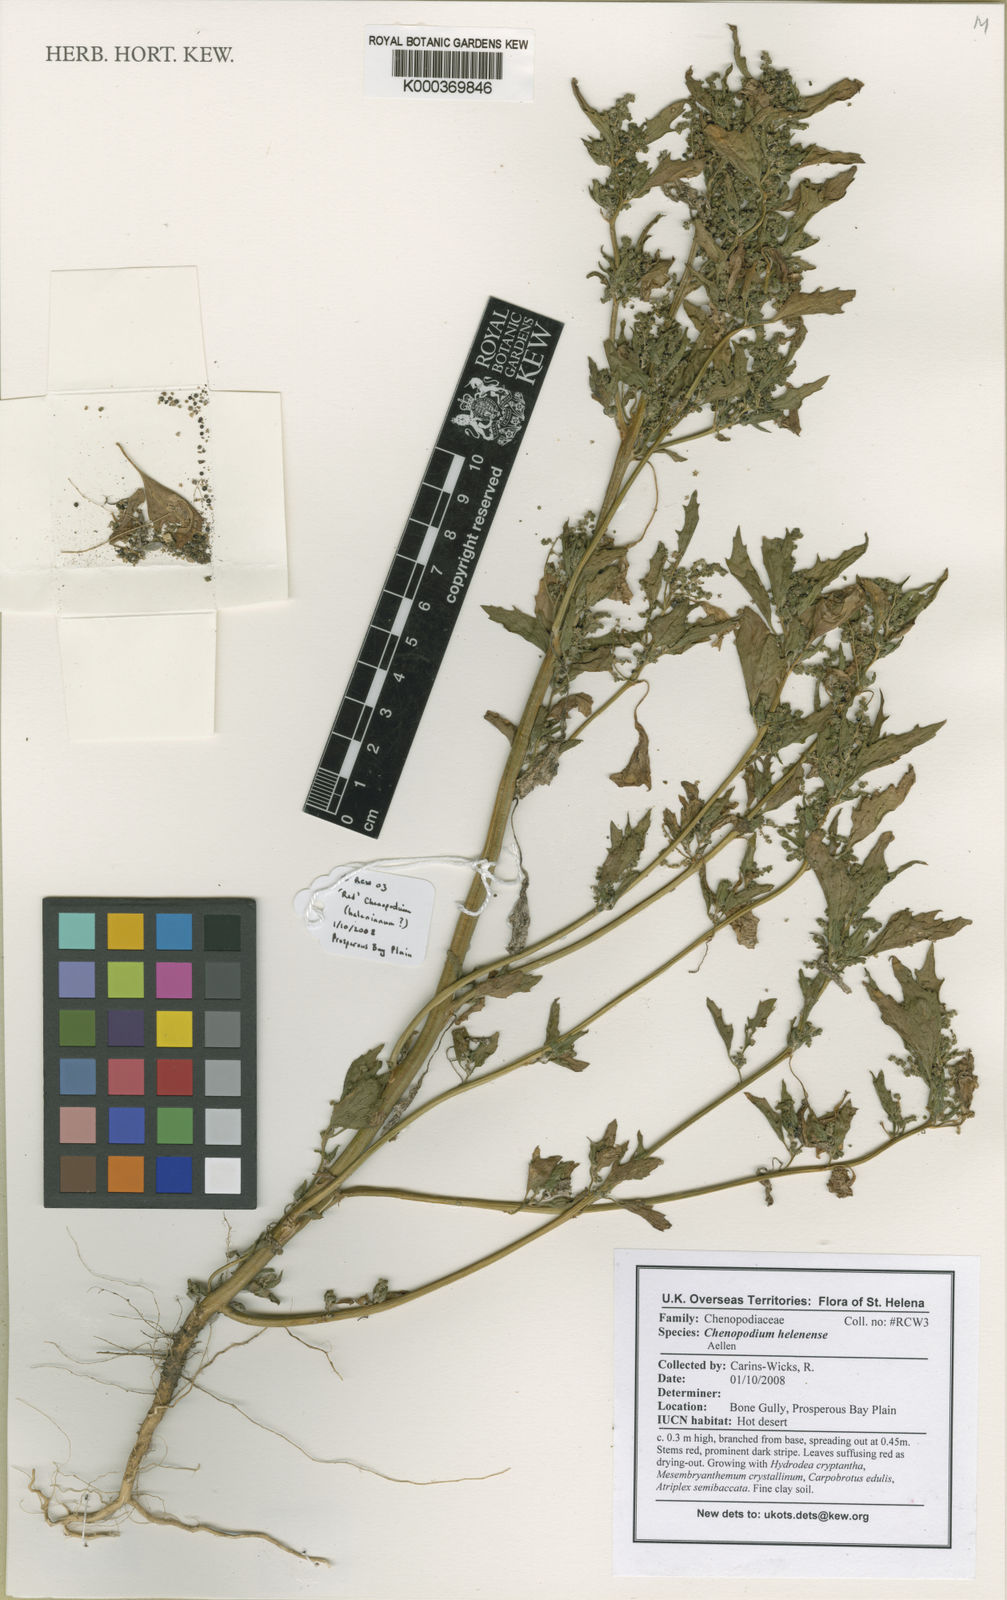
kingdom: Plantae
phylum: Tracheophyta
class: Magnoliopsida
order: Caryophyllales
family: Amaranthaceae
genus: Chenopodiastrum
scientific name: Chenopodiastrum helenense
